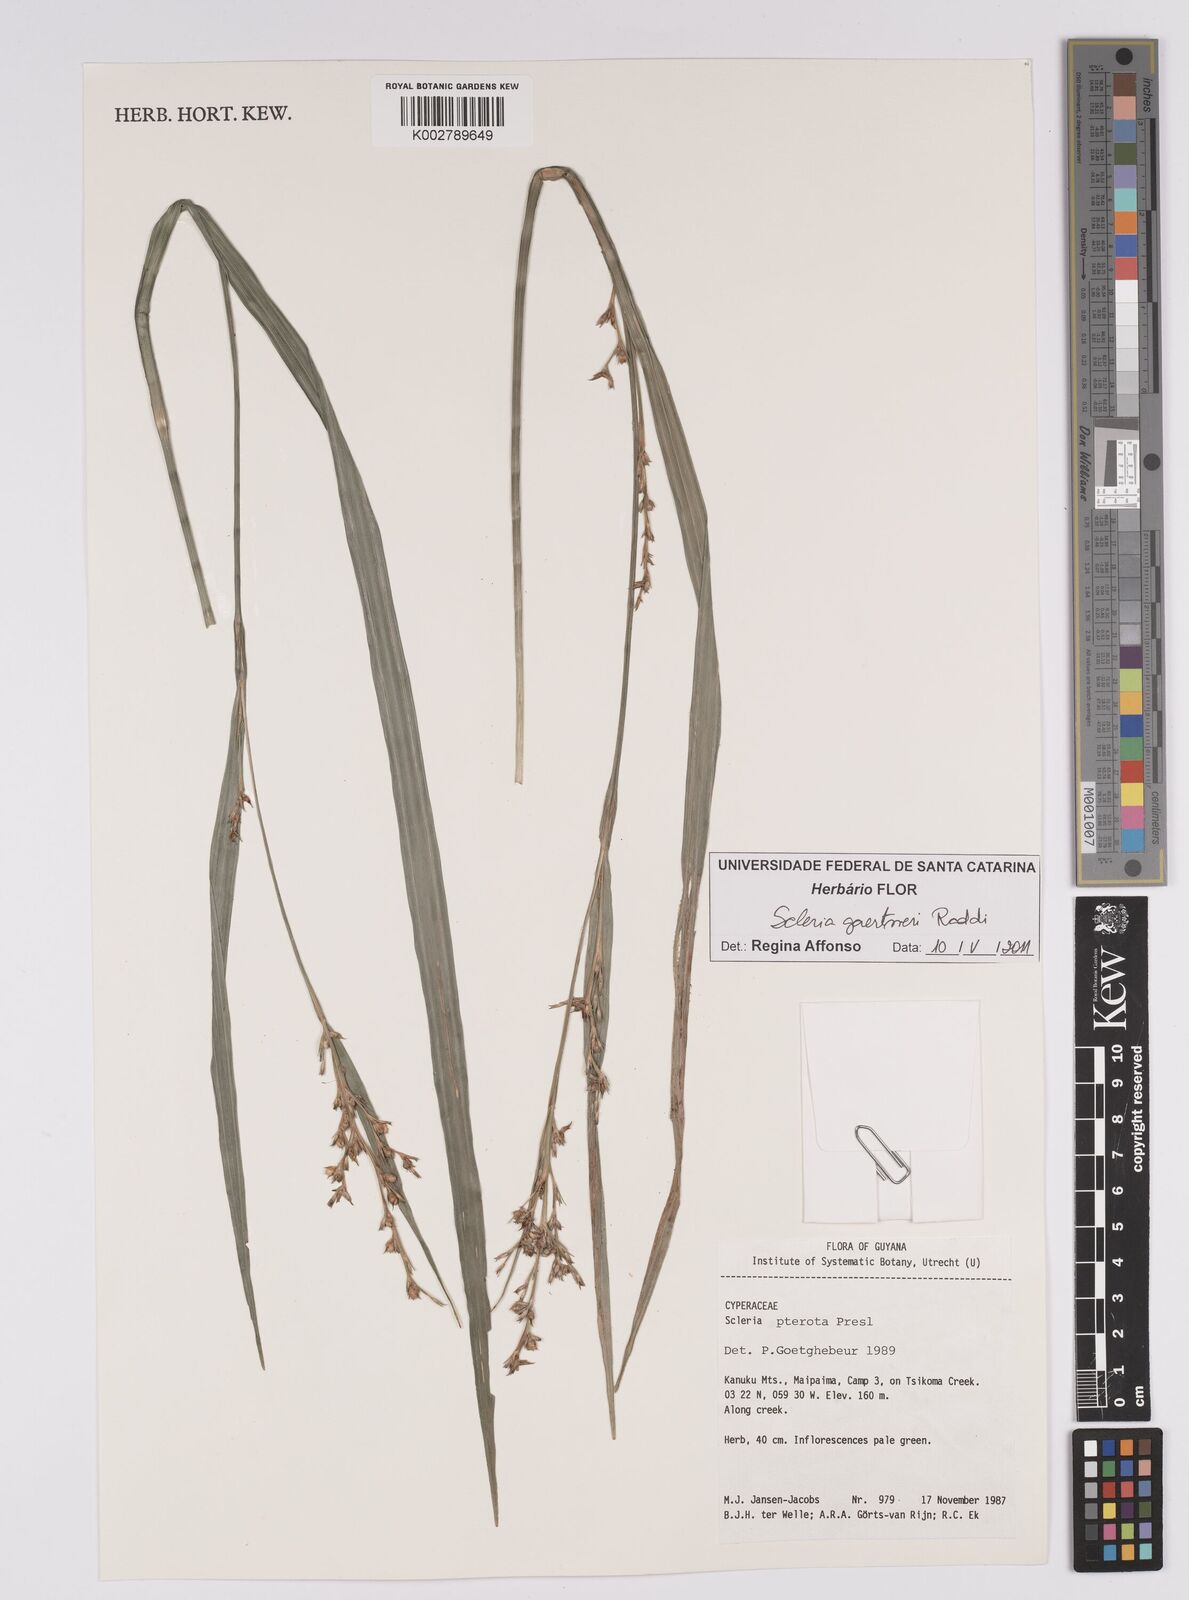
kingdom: Plantae
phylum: Tracheophyta
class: Liliopsida
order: Poales
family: Cyperaceae
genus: Scleria
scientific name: Scleria gaertneri
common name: Cortadera blanca
